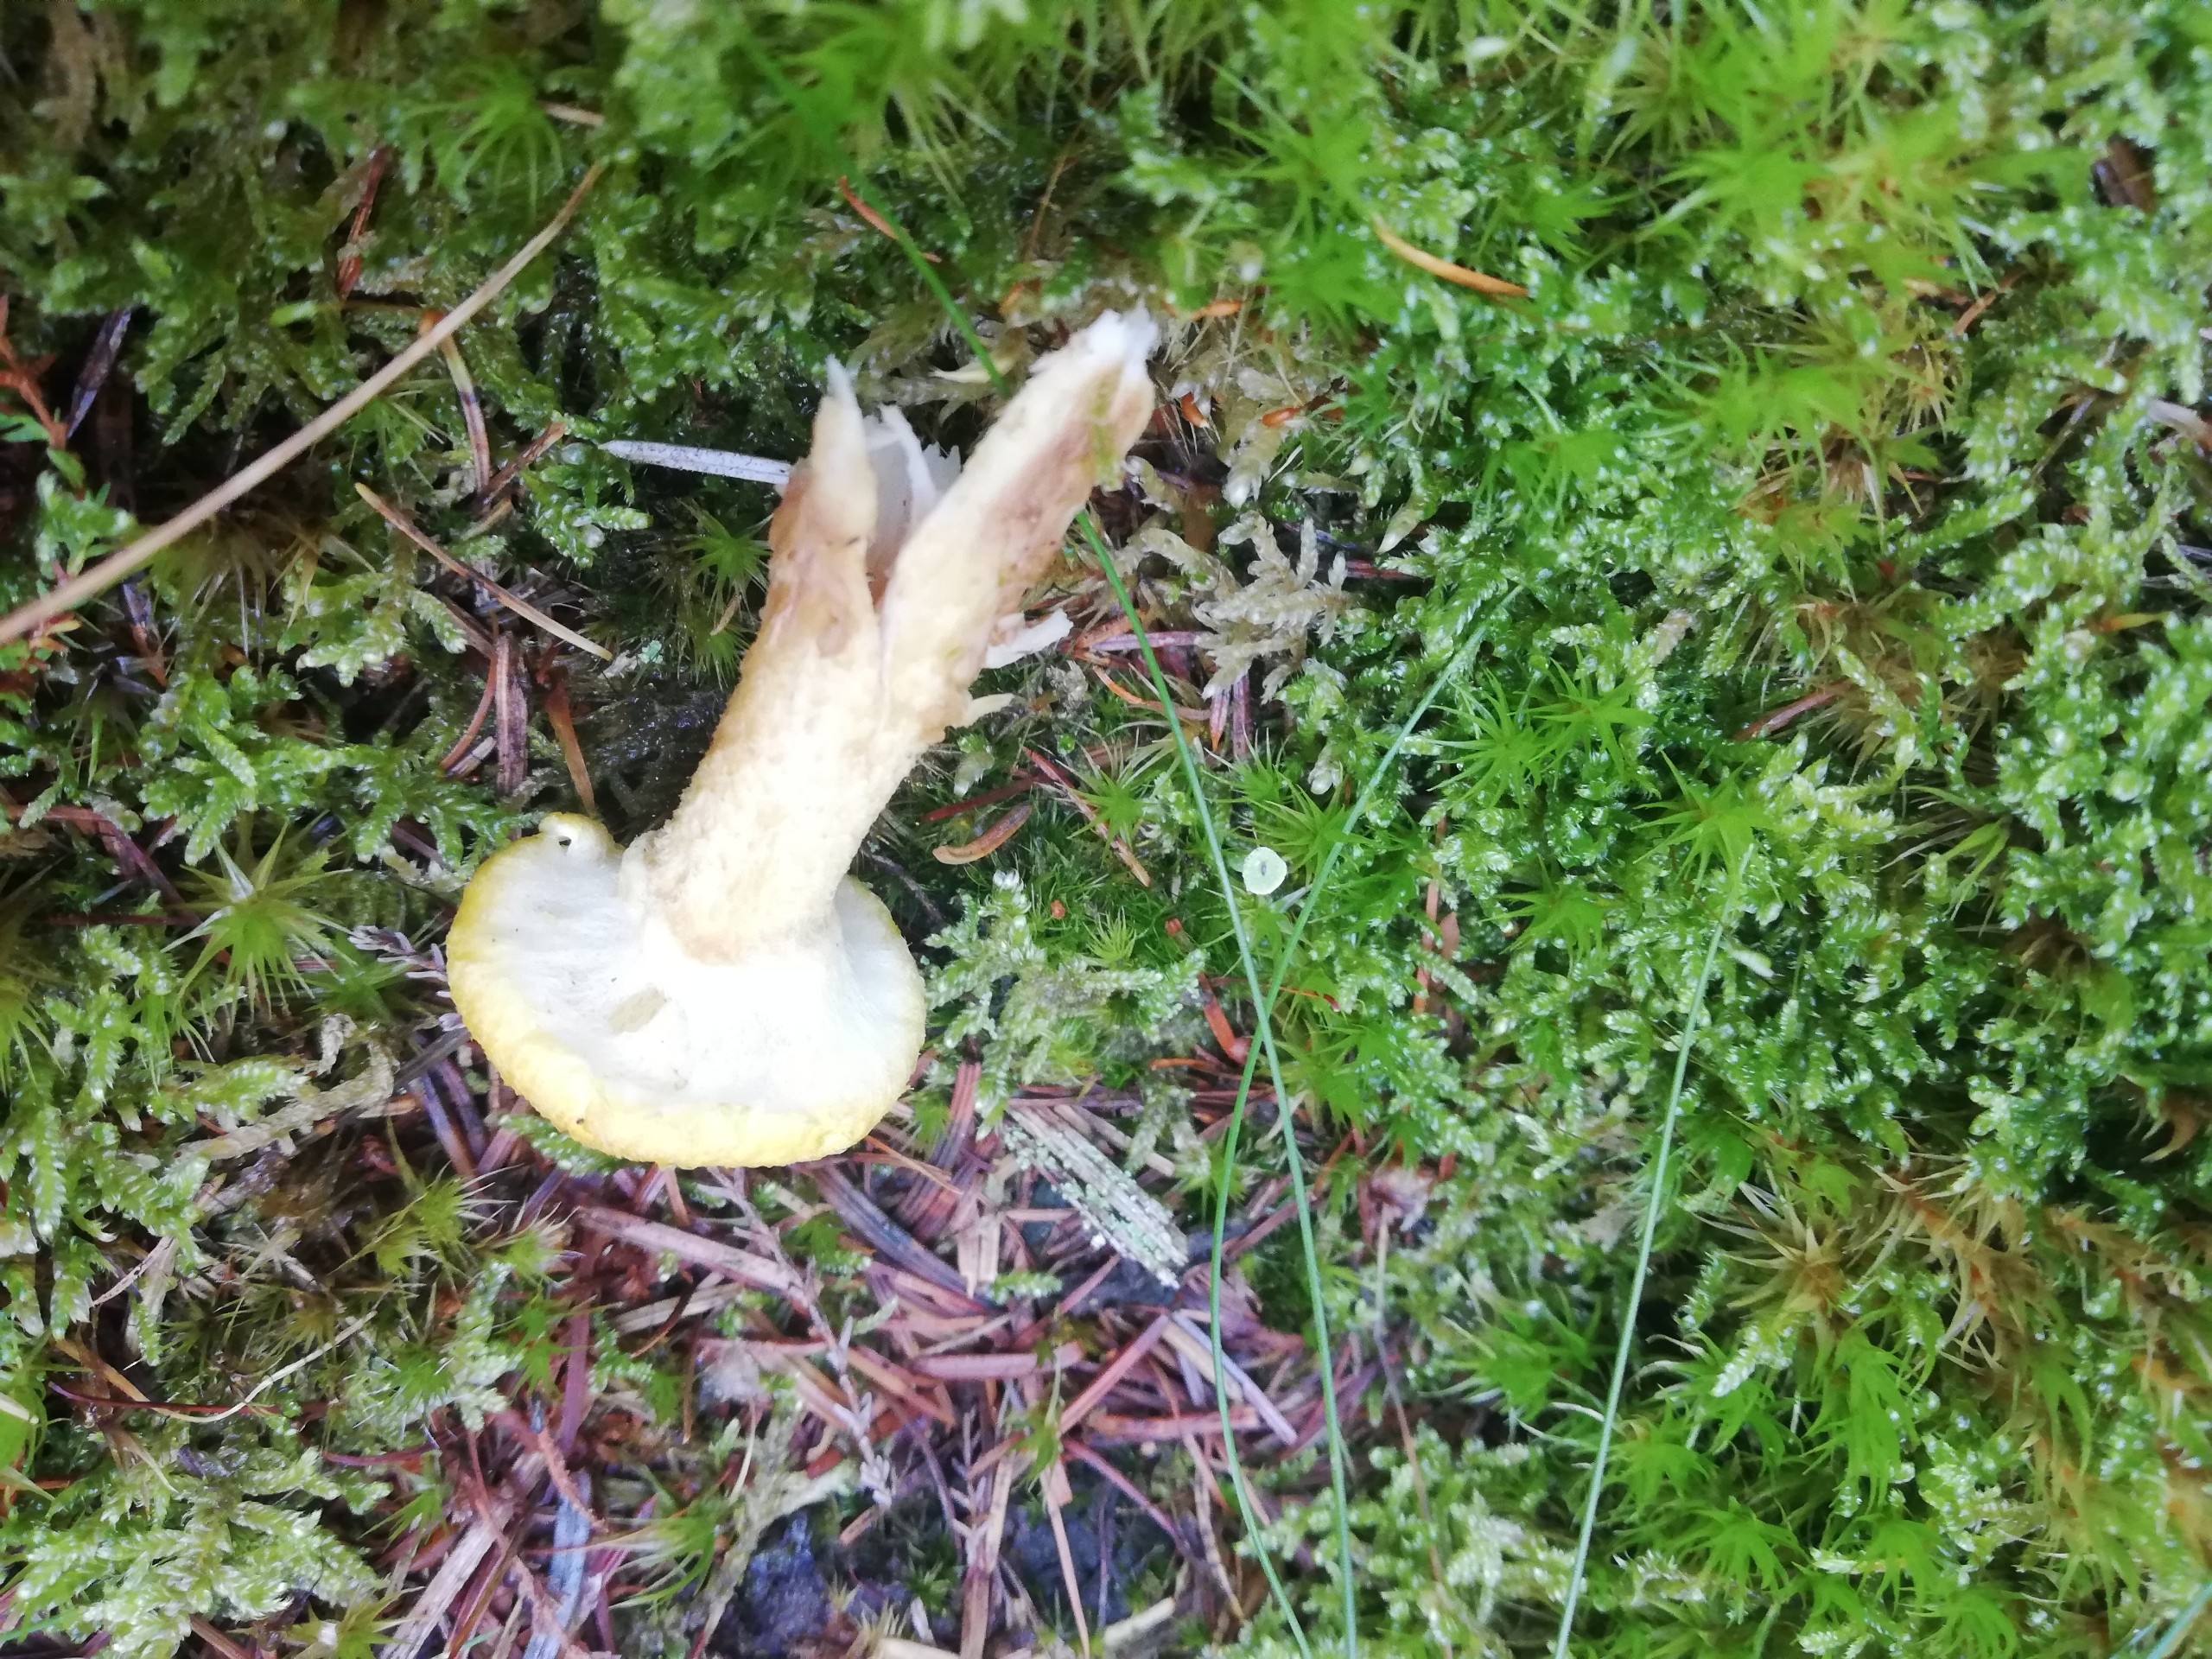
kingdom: Fungi
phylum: Basidiomycota
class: Agaricomycetes
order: Boletales
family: Suillaceae
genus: Suillus
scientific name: Suillus cavipes
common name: Hulstokket slimrørhat
